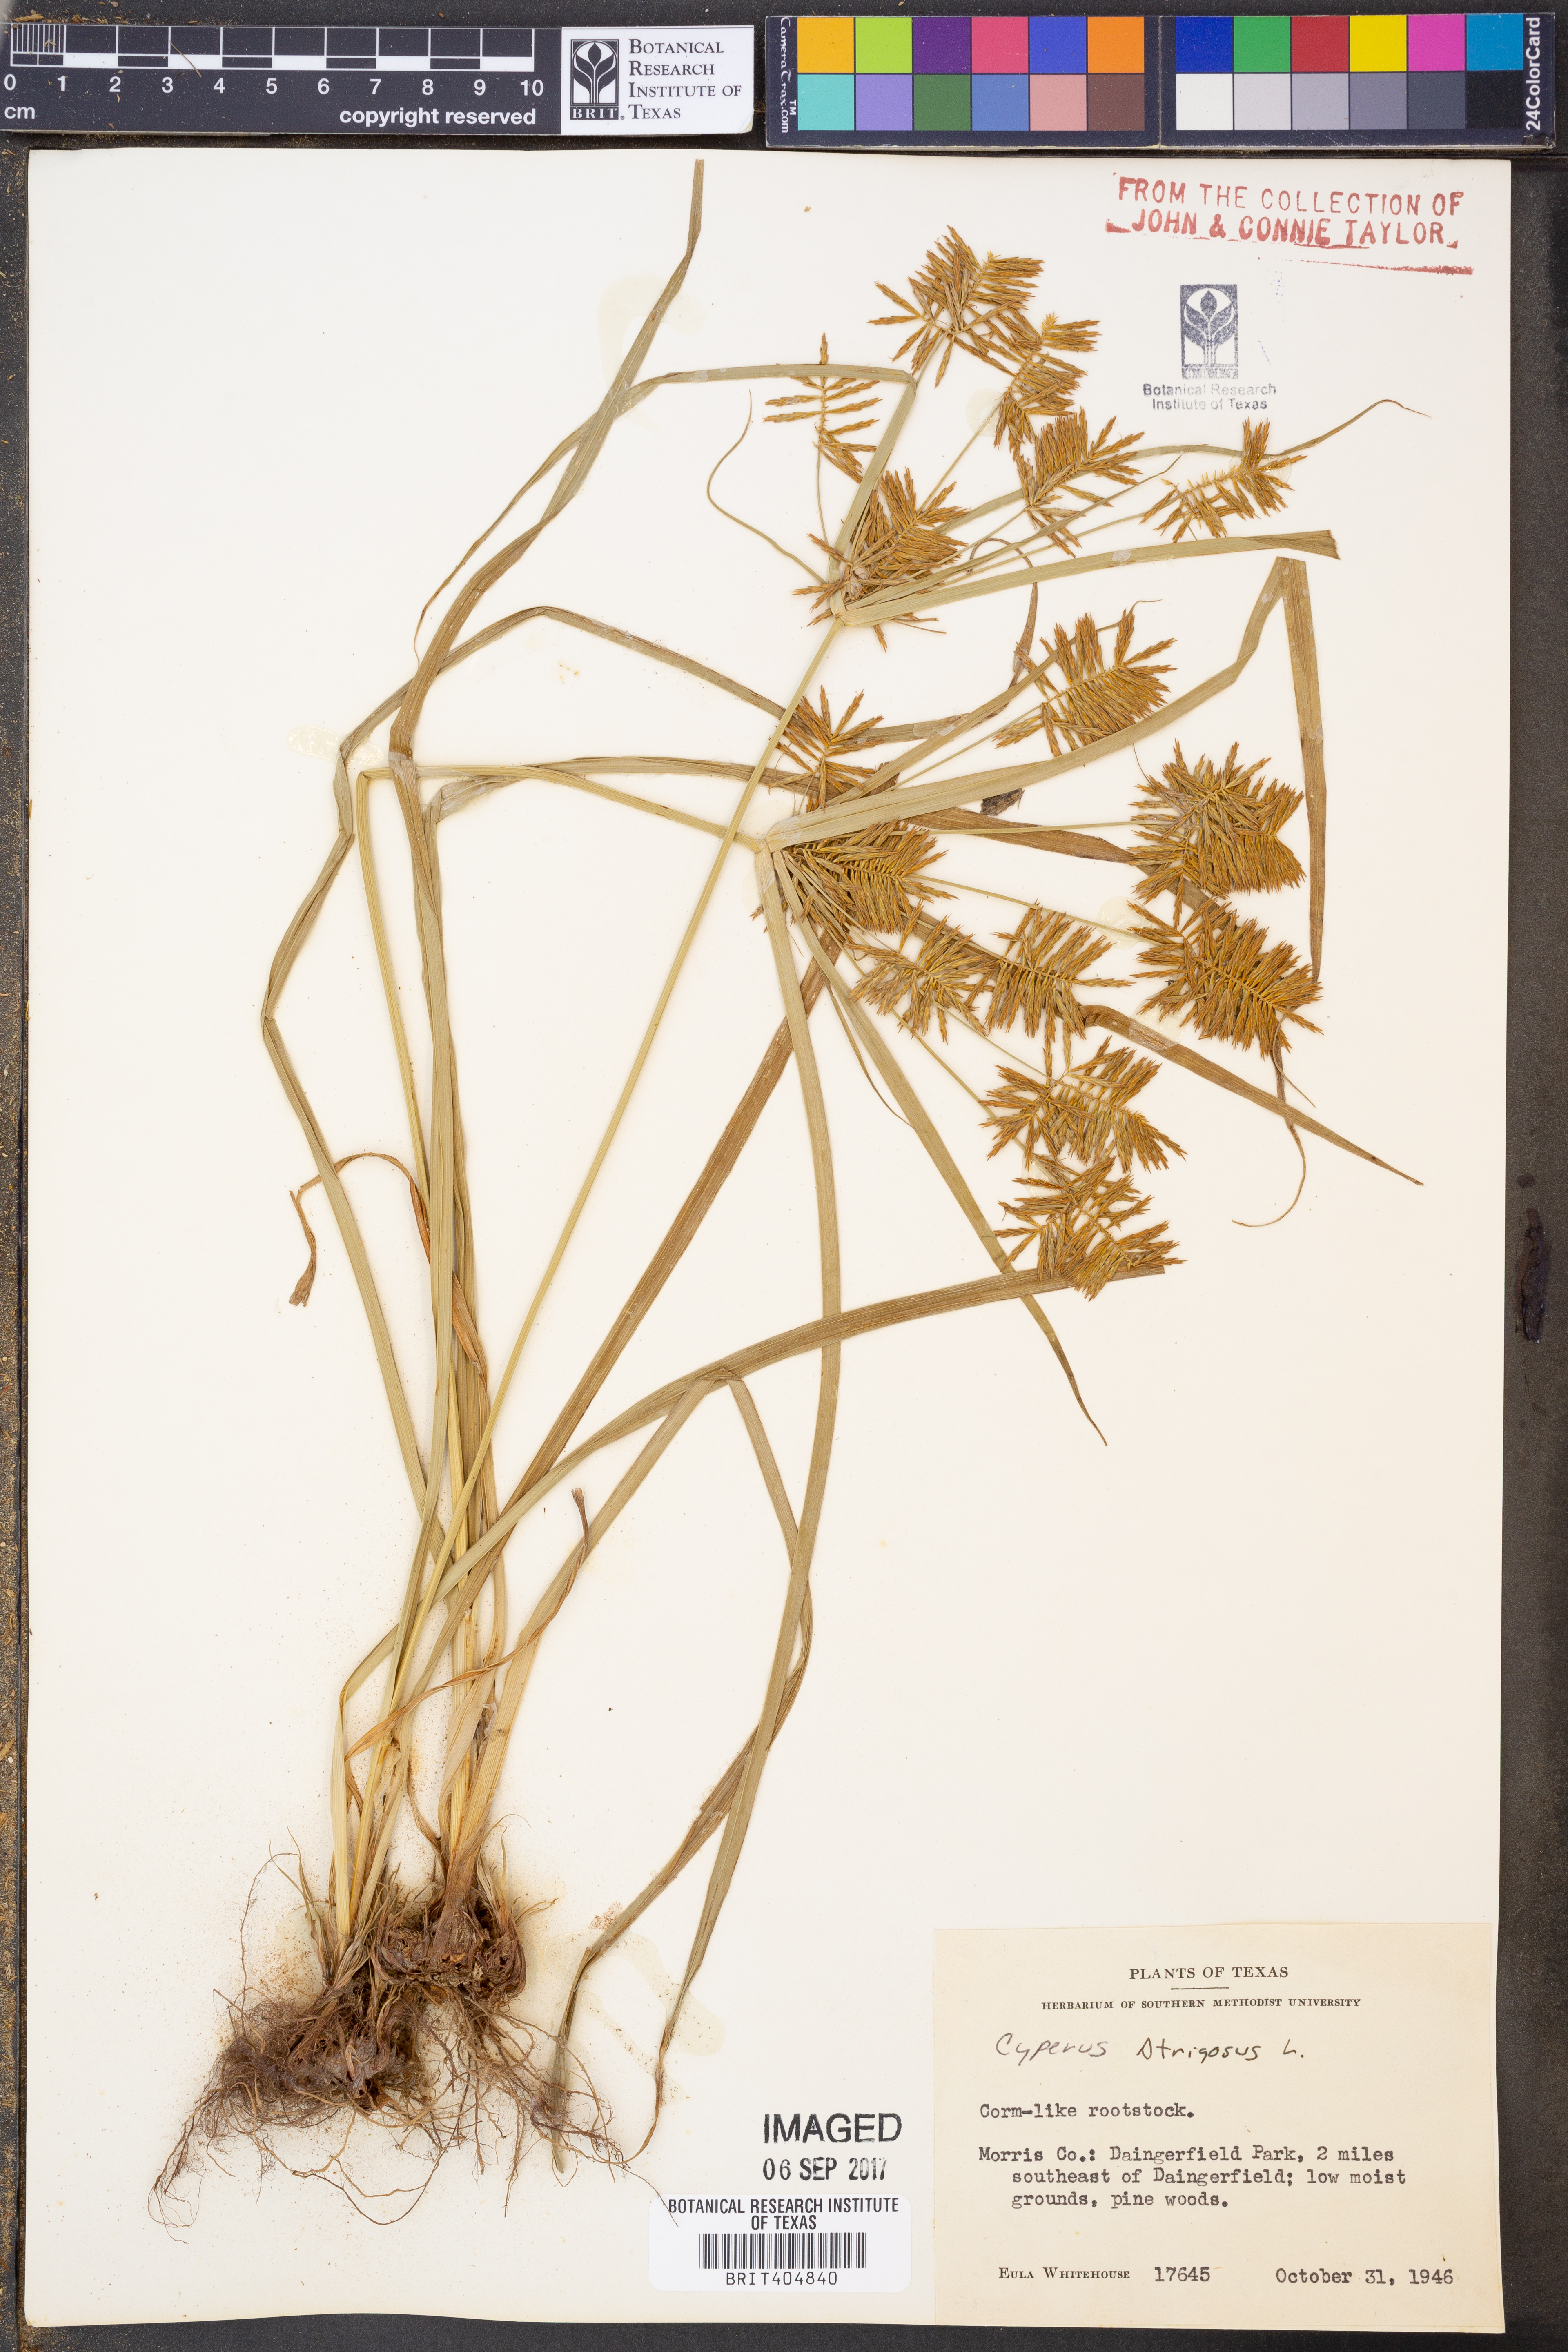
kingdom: Plantae
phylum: Tracheophyta
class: Liliopsida
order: Poales
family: Cyperaceae
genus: Cyperus
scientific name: Cyperus strigosus
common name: False nutsedge
